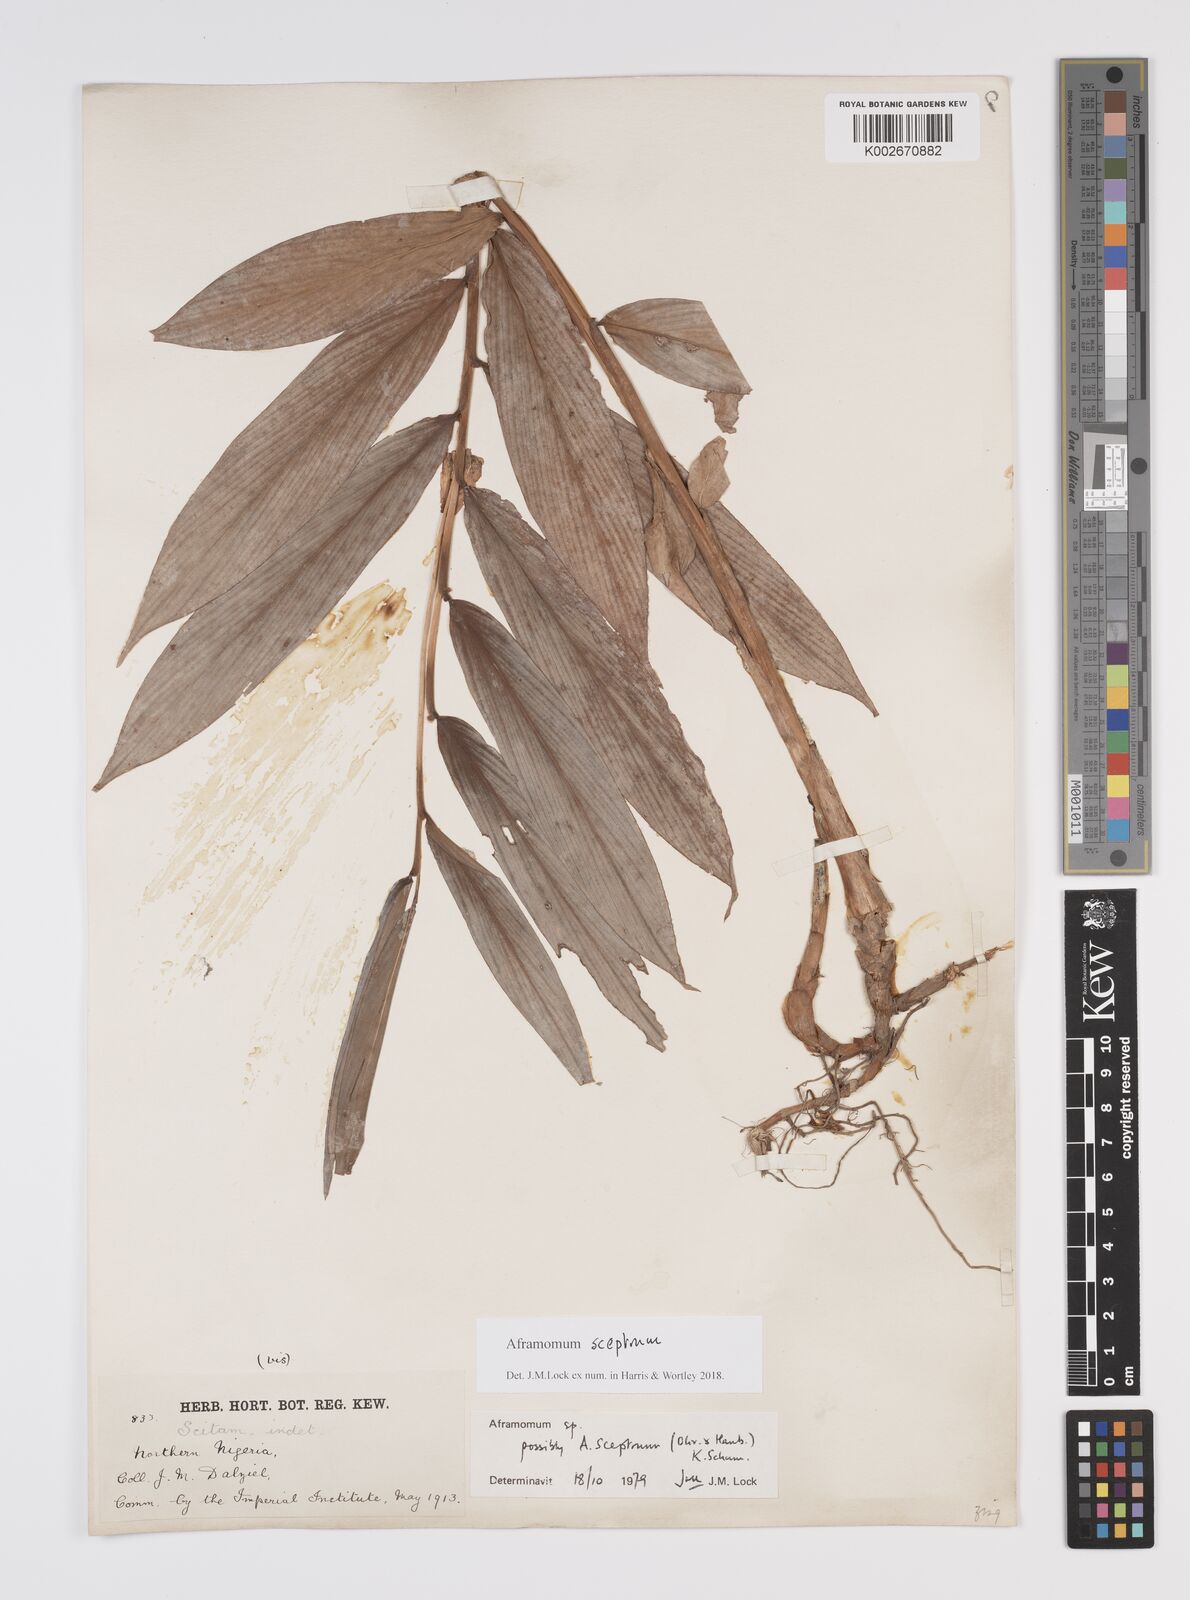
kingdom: Plantae
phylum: Tracheophyta
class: Liliopsida
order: Zingiberales
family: Zingiberaceae
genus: Aframomum
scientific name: Aframomum cereum
